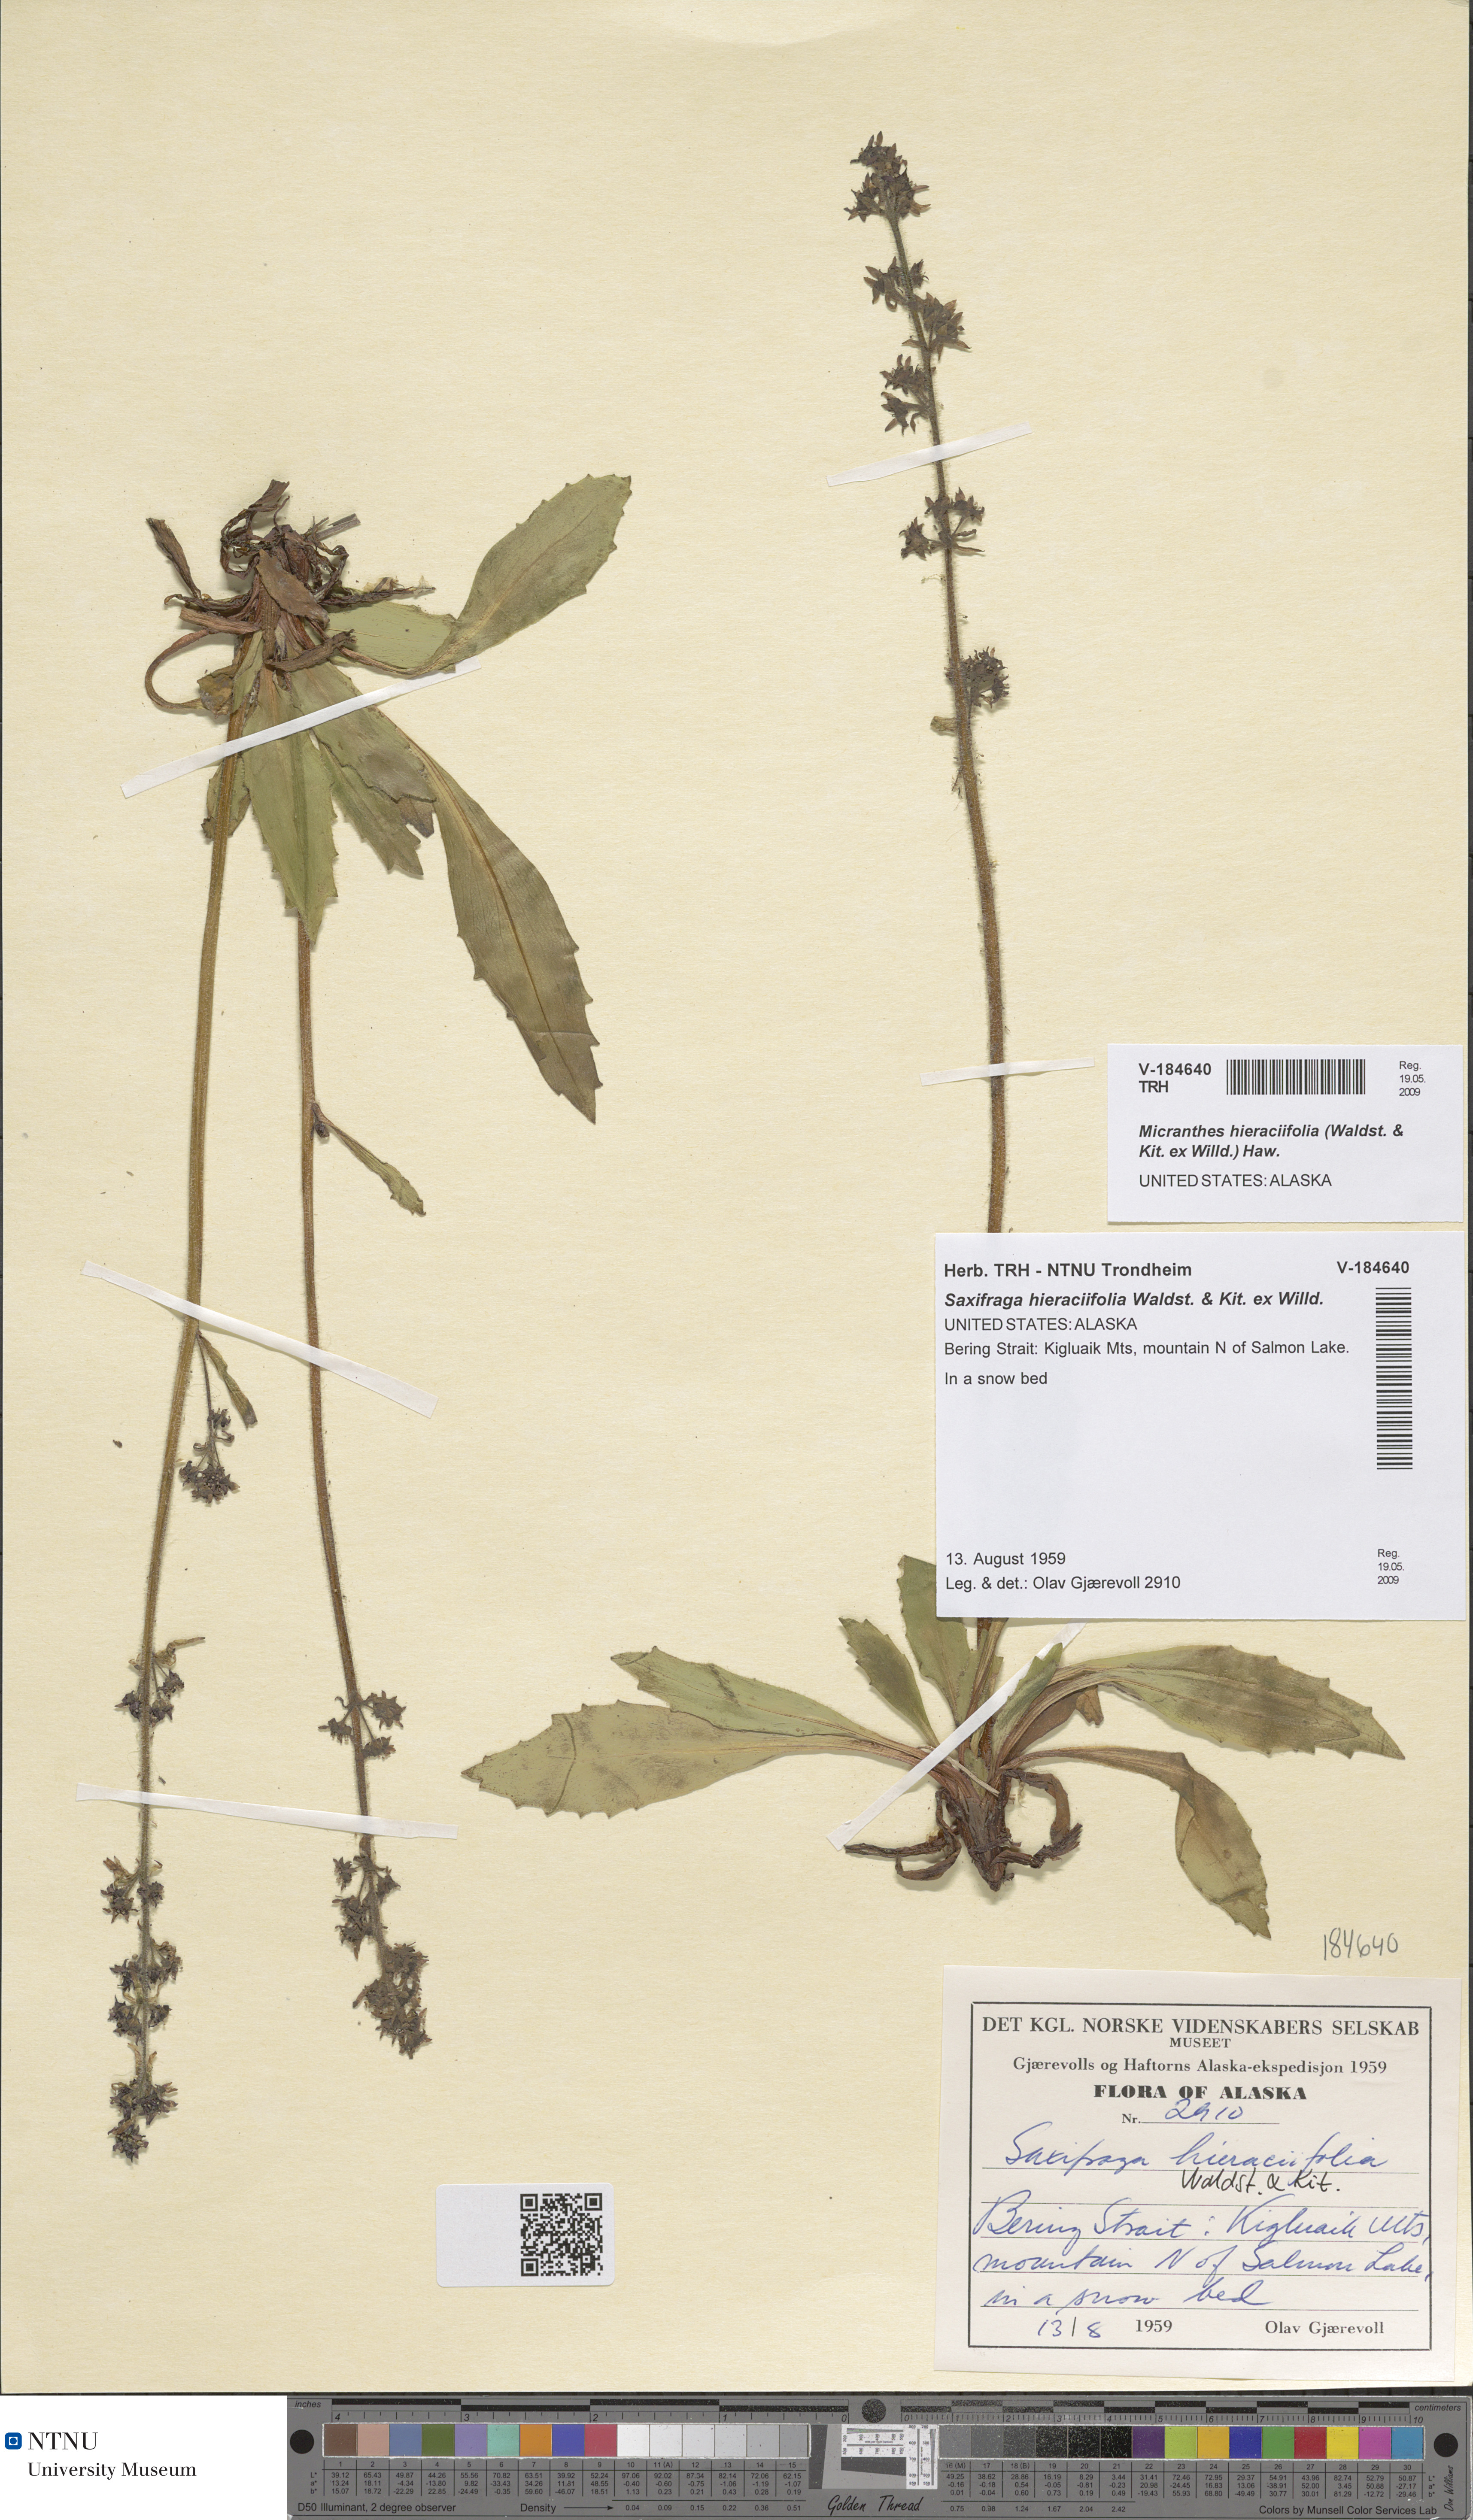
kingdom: Plantae
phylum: Tracheophyta
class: Magnoliopsida
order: Saxifragales
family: Saxifragaceae
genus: Micranthes
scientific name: Micranthes hieraciifolia
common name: Hawkweed-leaved saxifrage
